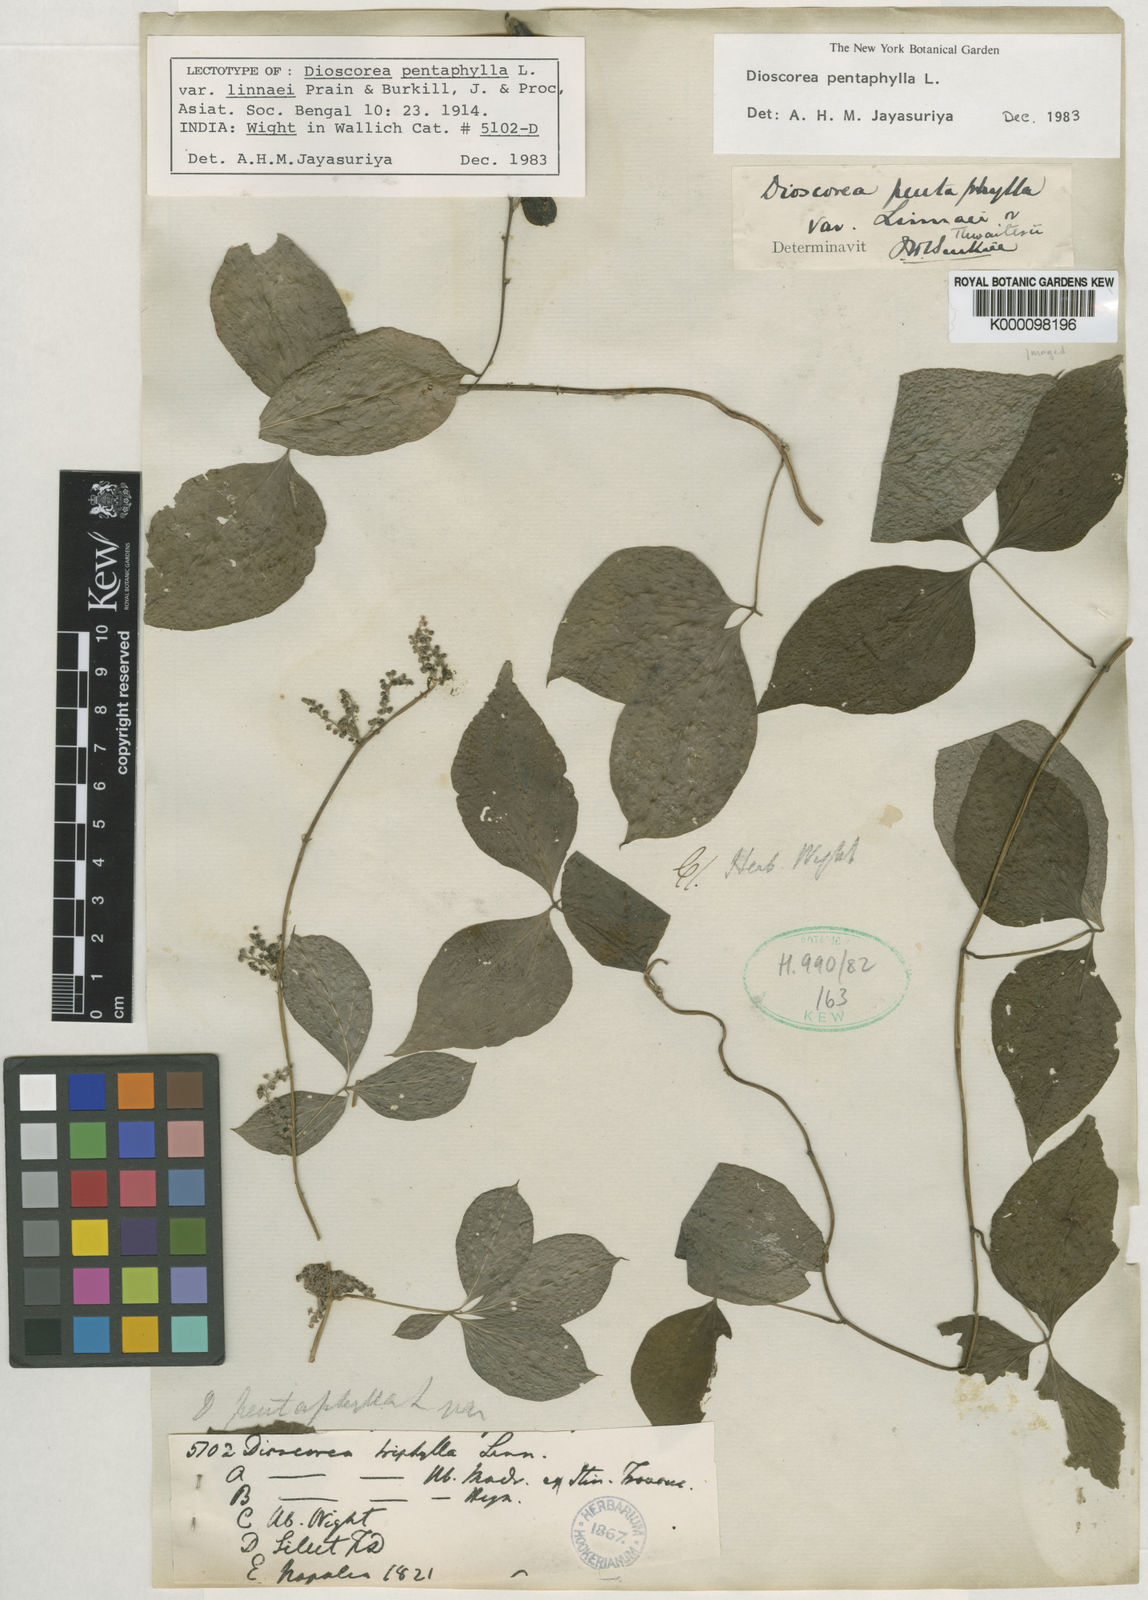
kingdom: Plantae
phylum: Tracheophyta
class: Liliopsida
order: Dioscoreales
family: Dioscoreaceae
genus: Dioscorea
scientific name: Dioscorea pentaphylla
